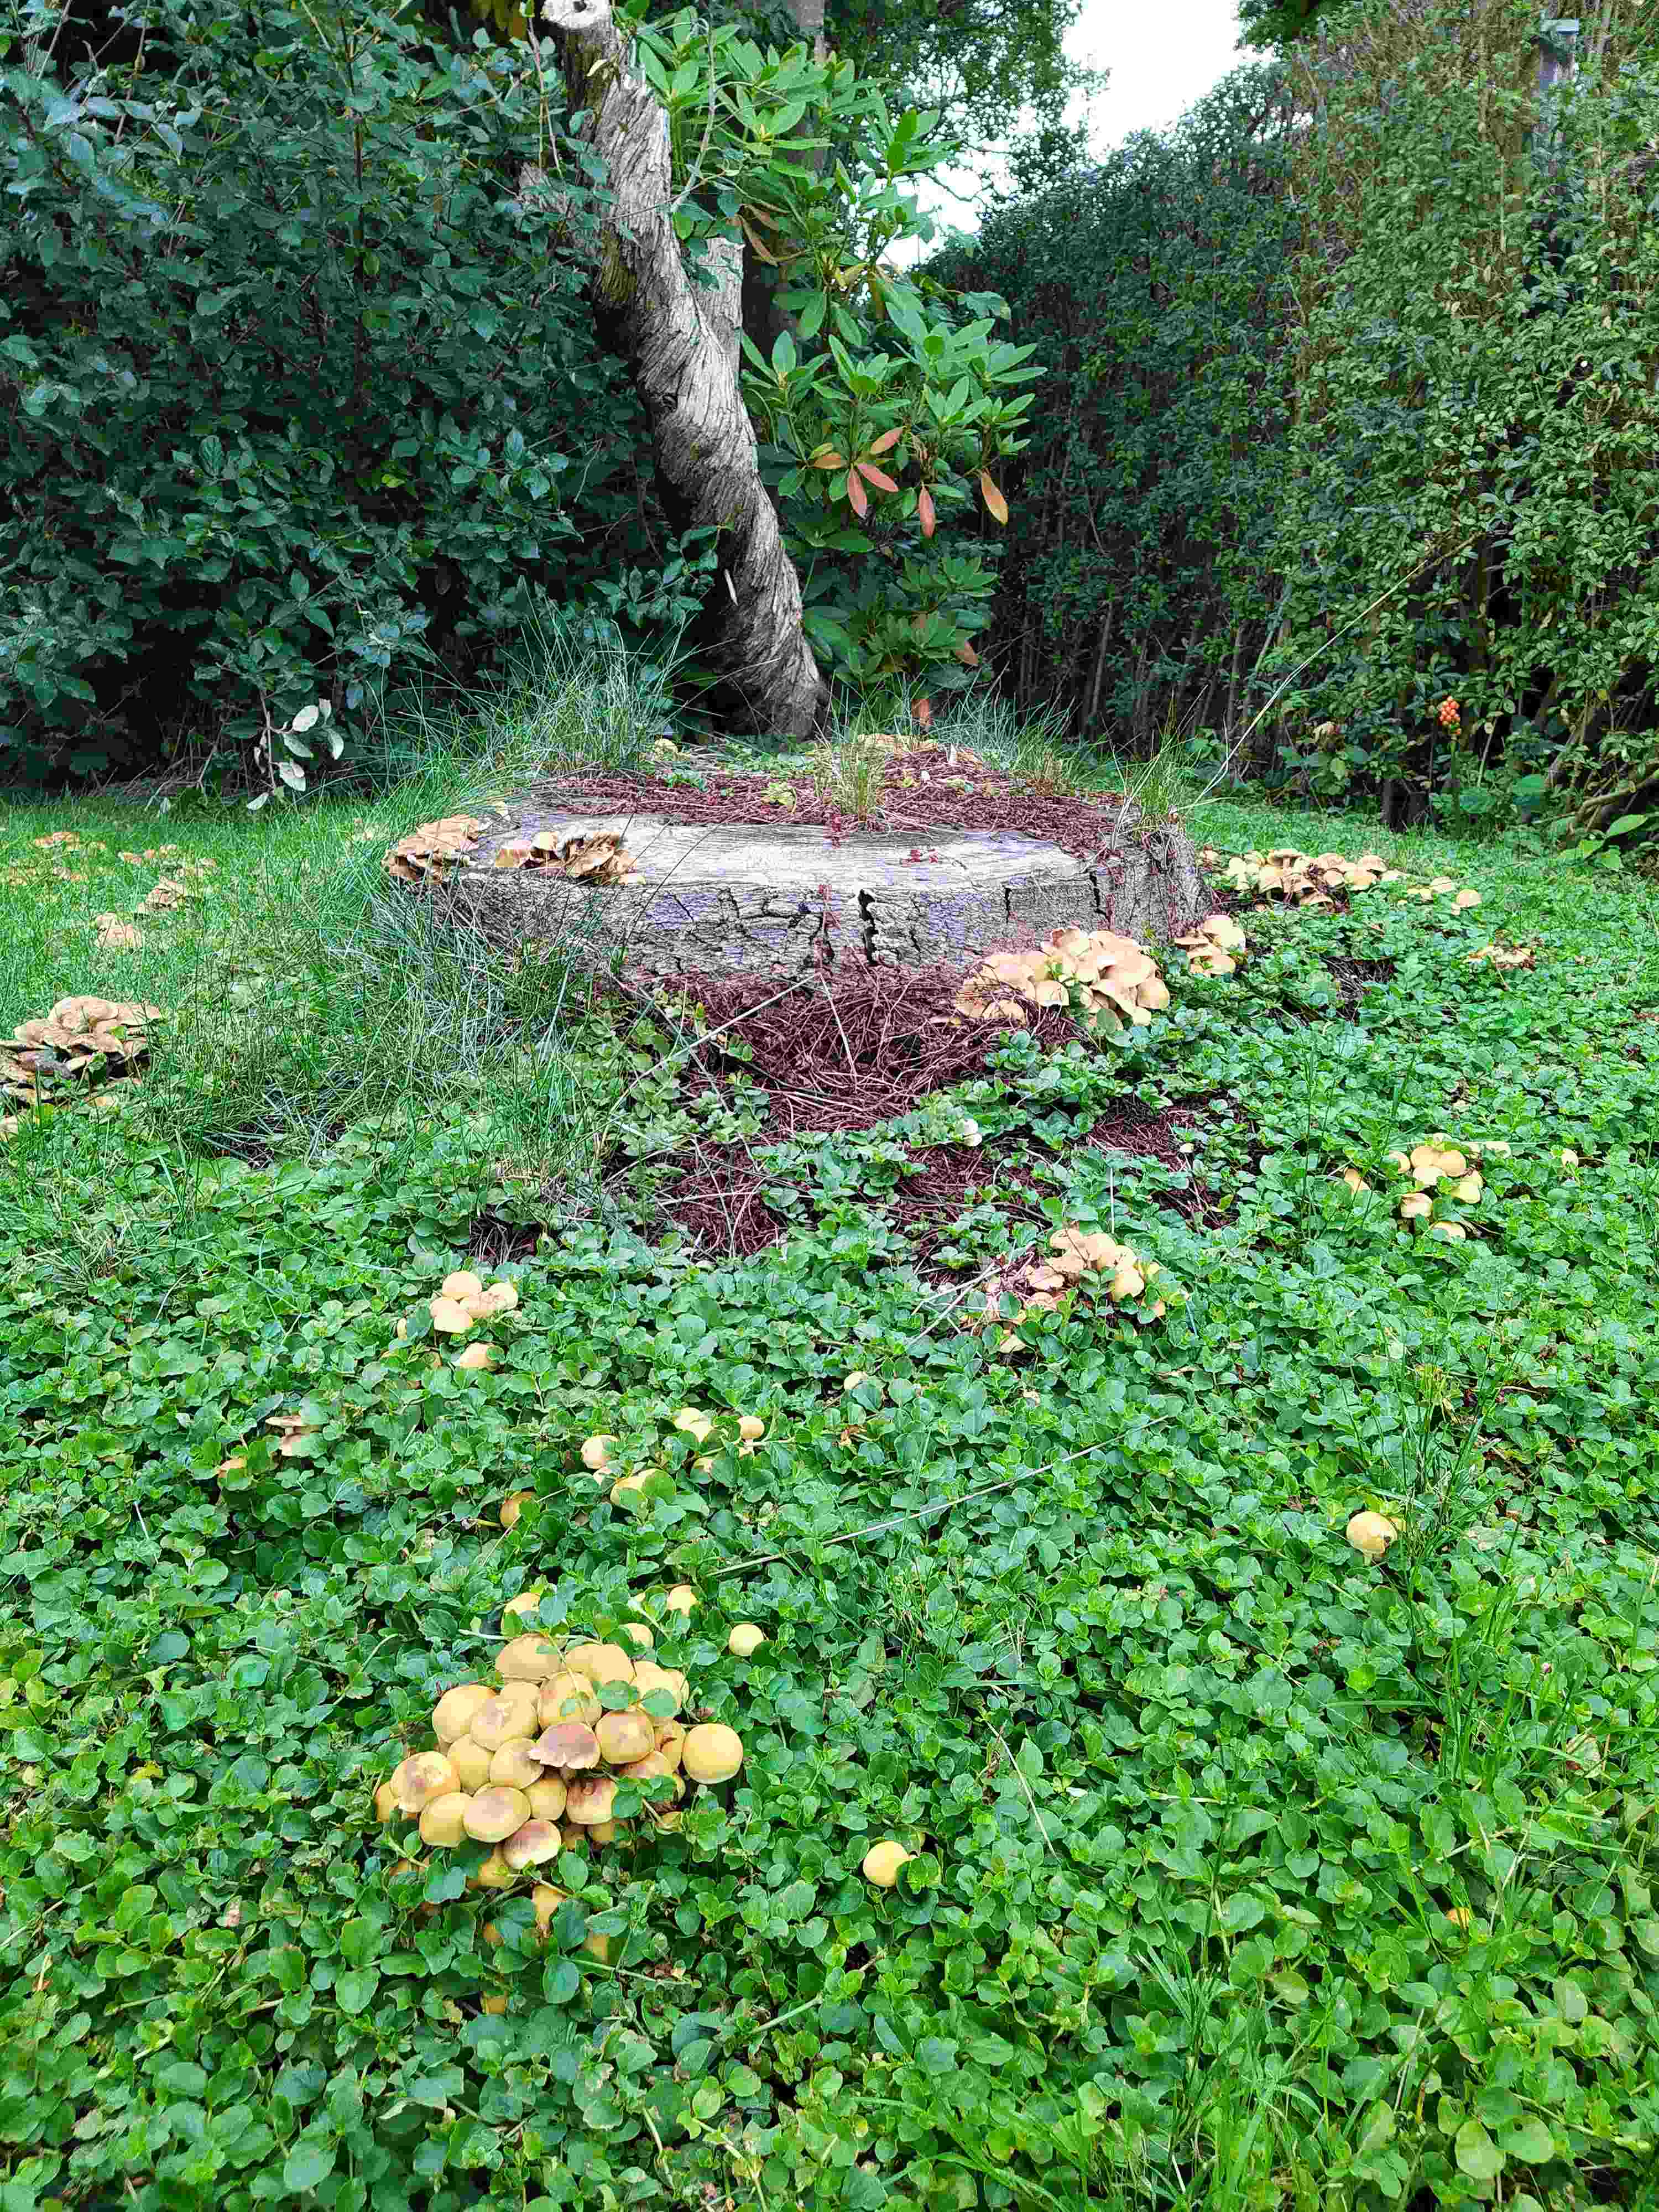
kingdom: Fungi
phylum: Basidiomycota
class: Agaricomycetes
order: Agaricales
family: Strophariaceae
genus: Hypholoma
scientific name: Hypholoma fasciculare
